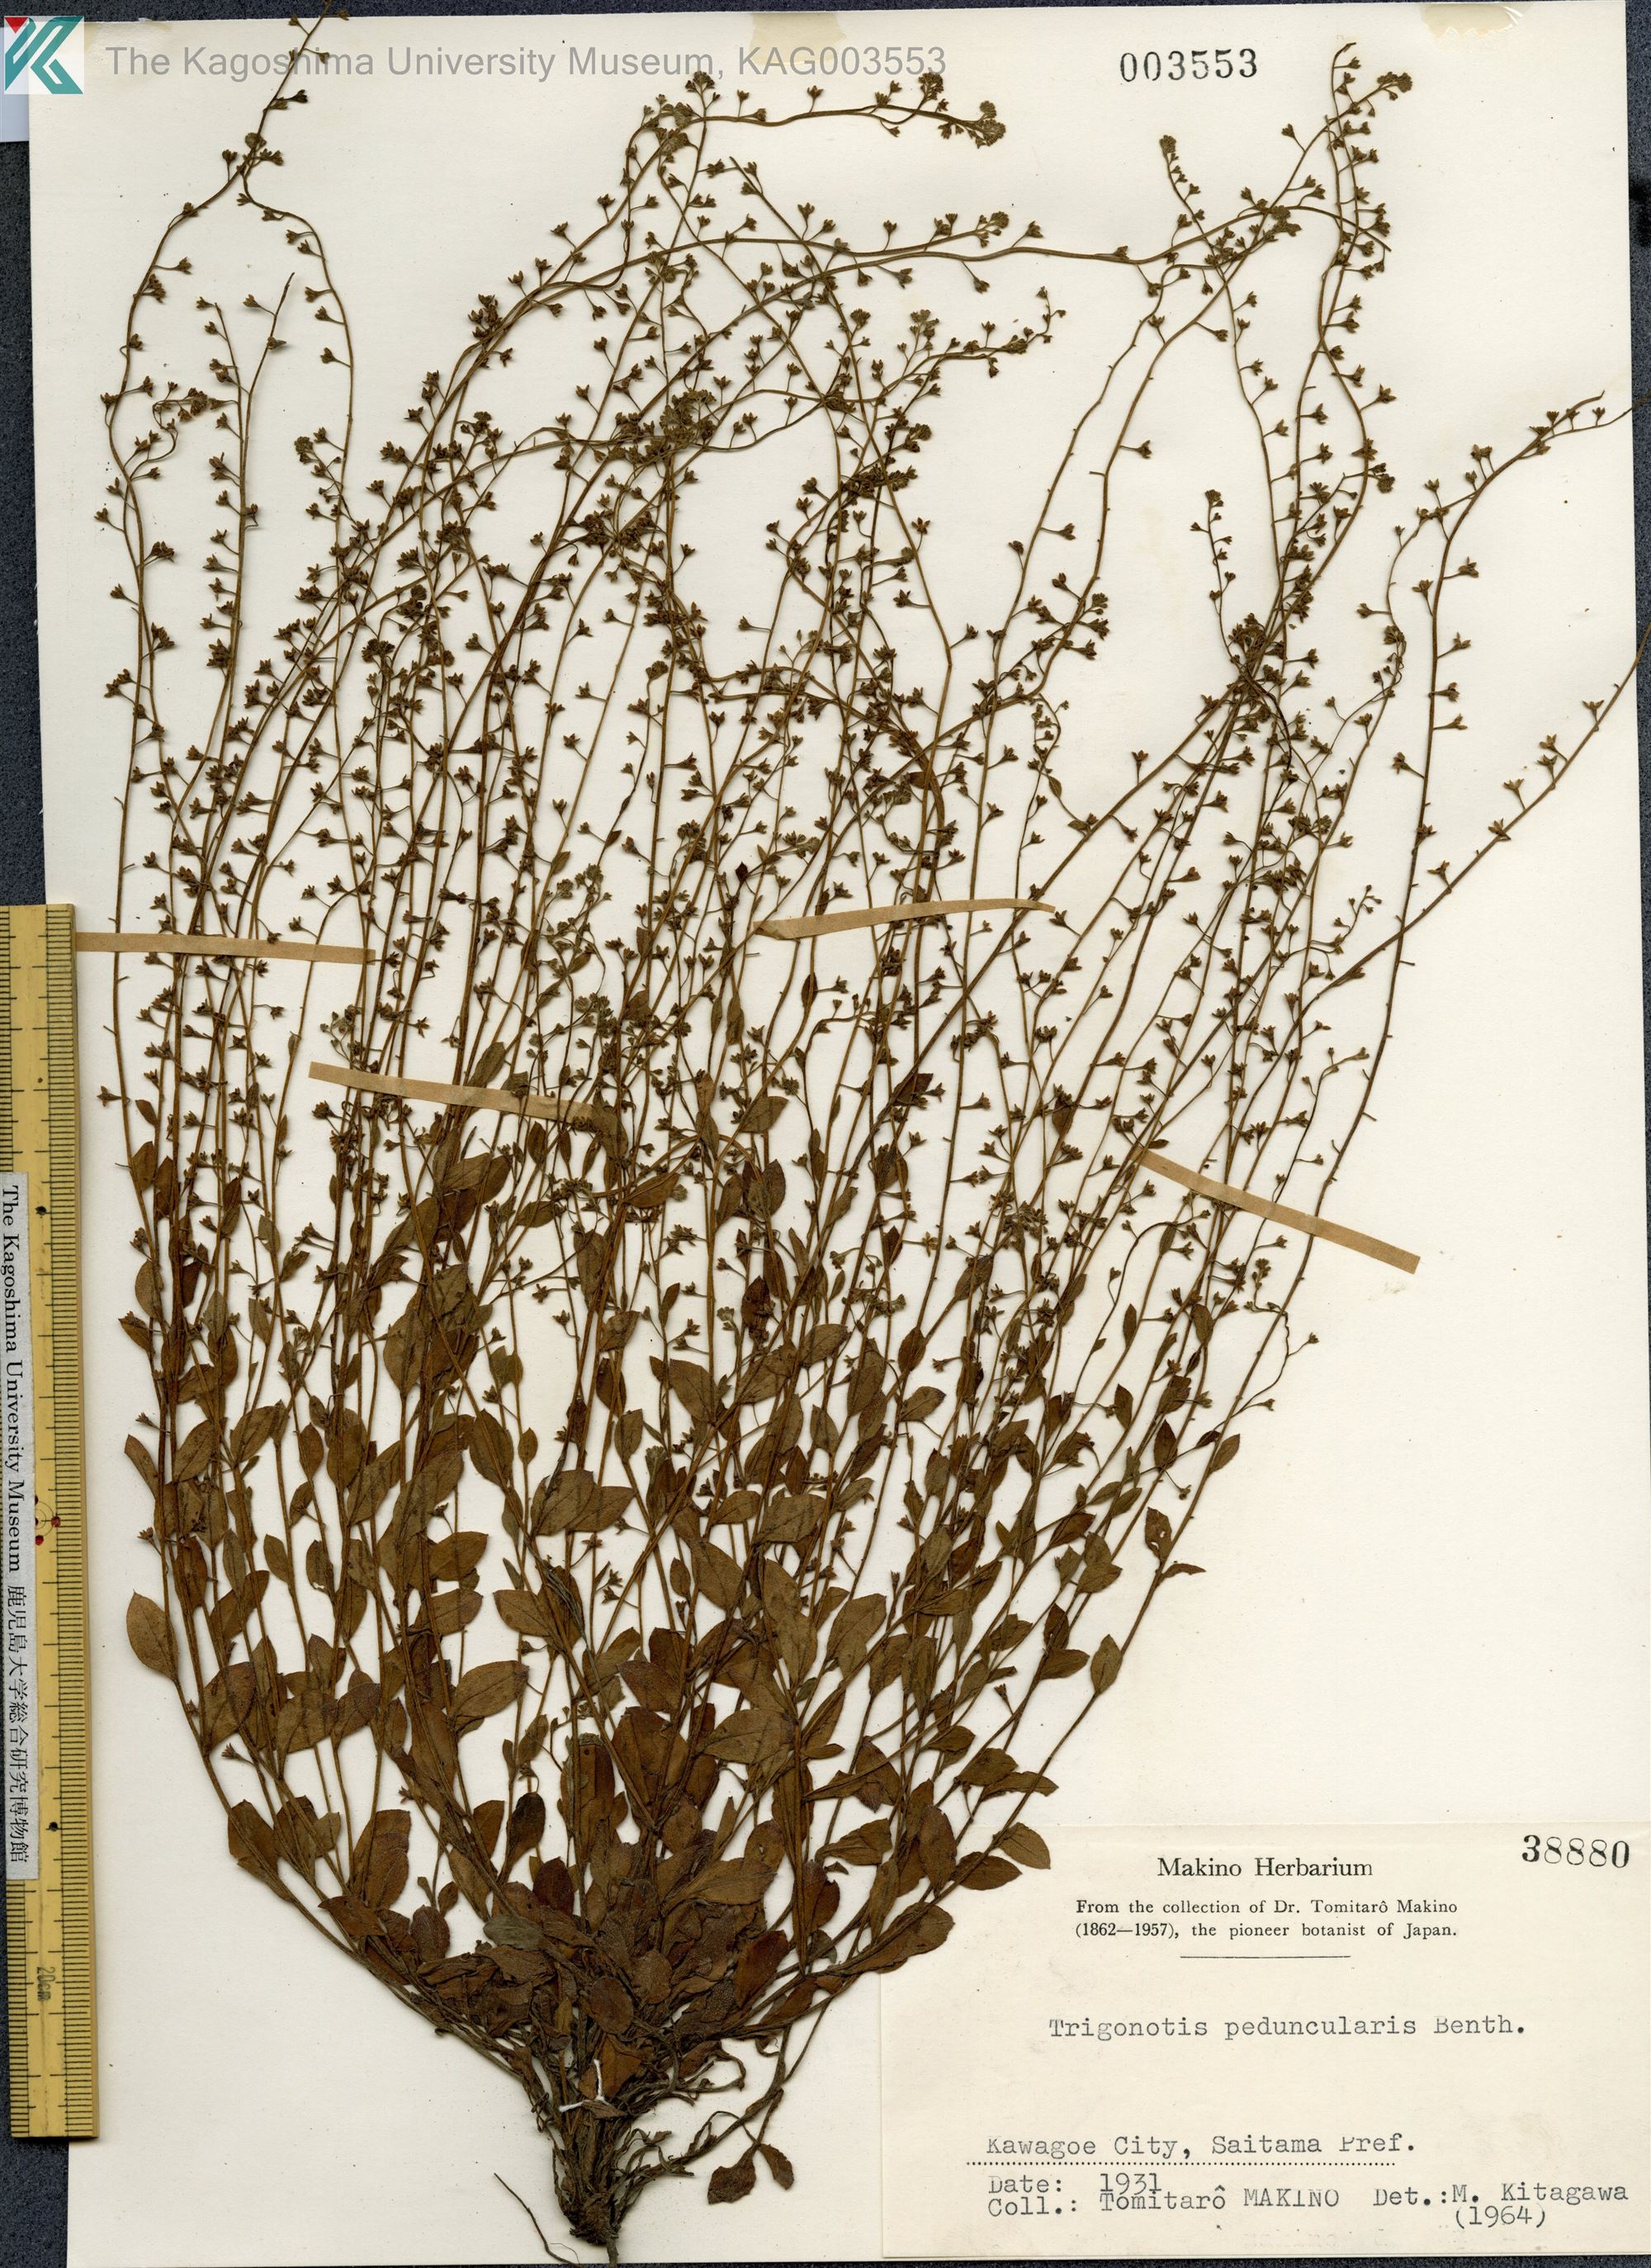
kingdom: Plantae
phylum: Tracheophyta
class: Magnoliopsida
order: Boraginales
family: Boraginaceae
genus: Trigonotis
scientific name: Trigonotis peduncularis
